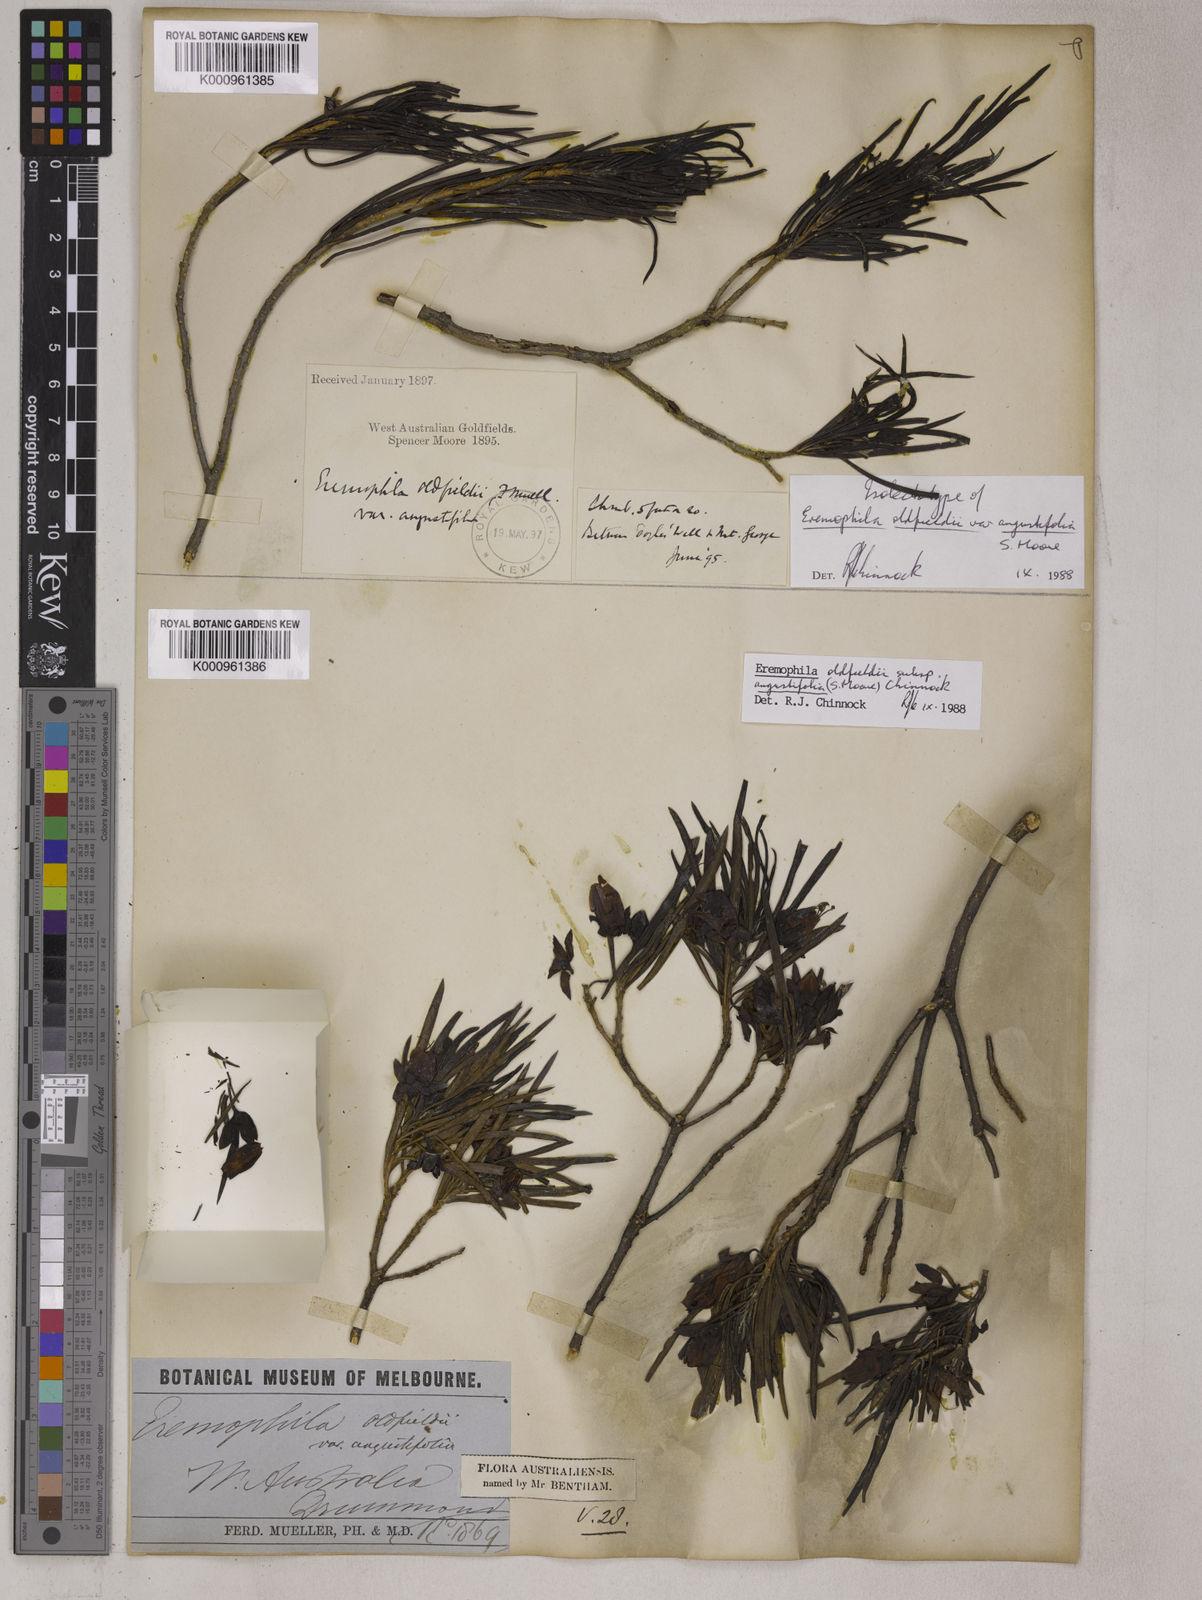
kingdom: Plantae
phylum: Tracheophyta
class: Magnoliopsida
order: Lamiales
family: Scrophulariaceae
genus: Eremophila
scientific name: Eremophila oldfieldii
